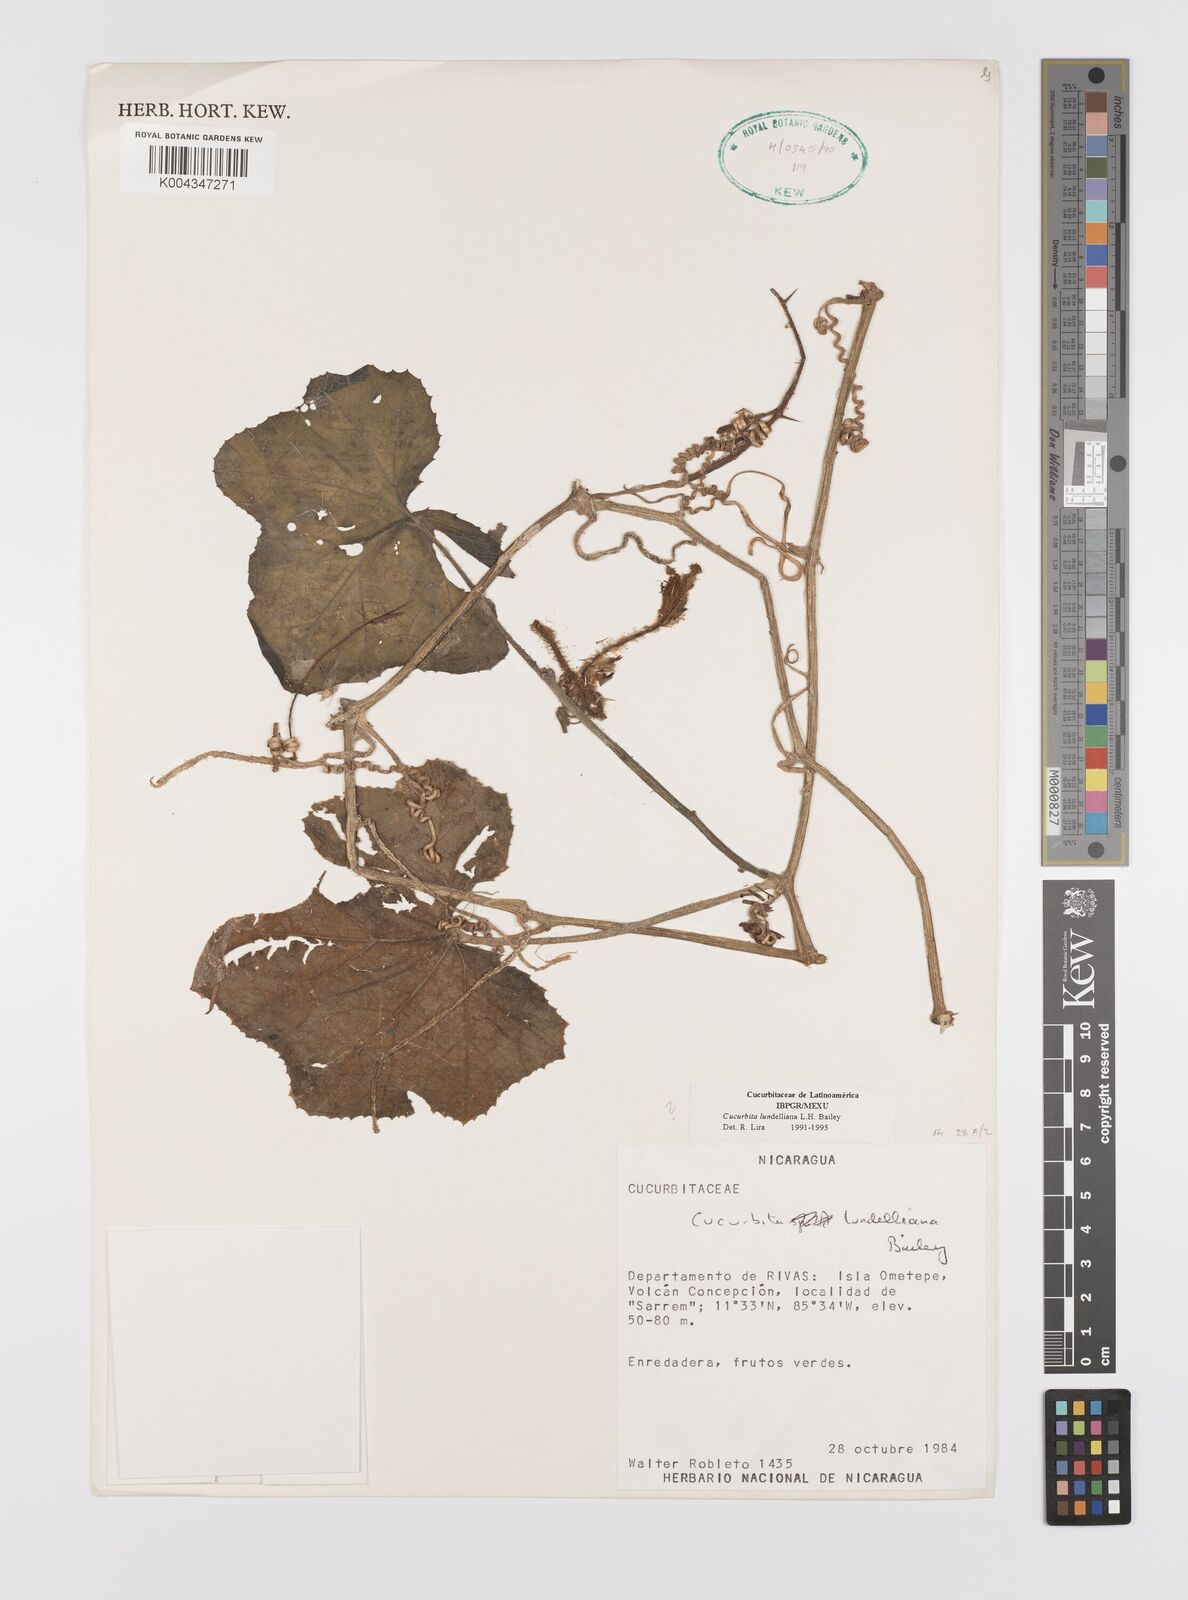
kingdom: Plantae
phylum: Tracheophyta
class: Magnoliopsida
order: Cucurbitales
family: Cucurbitaceae
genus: Cucurbita
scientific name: Cucurbita lundelliana
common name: Bitter pumpkin
